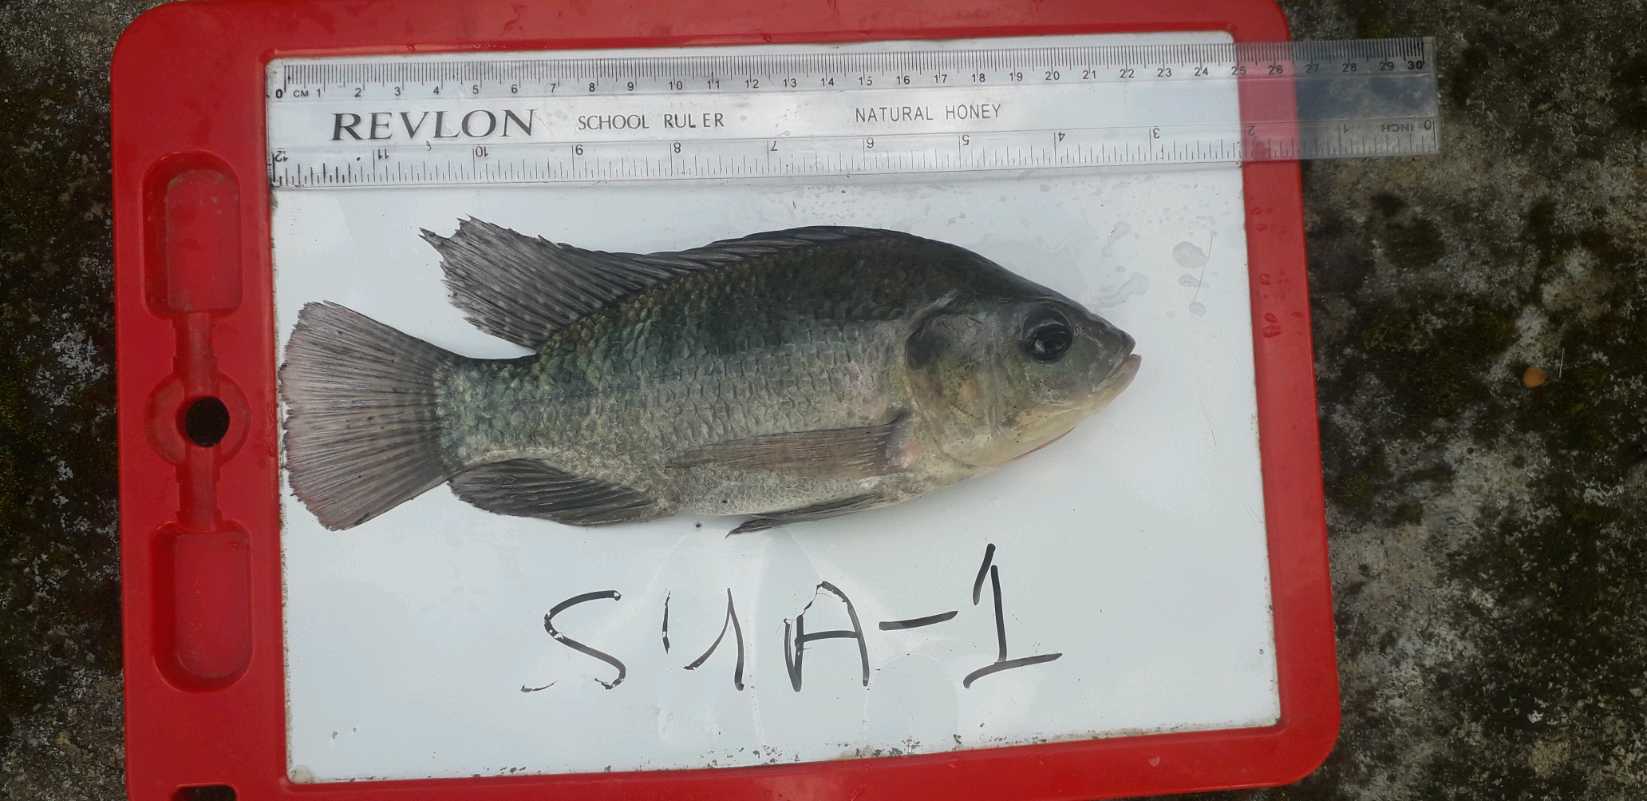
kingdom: Animalia
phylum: Chordata
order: Perciformes
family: Cichlidae
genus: Oreochromis
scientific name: Oreochromis
